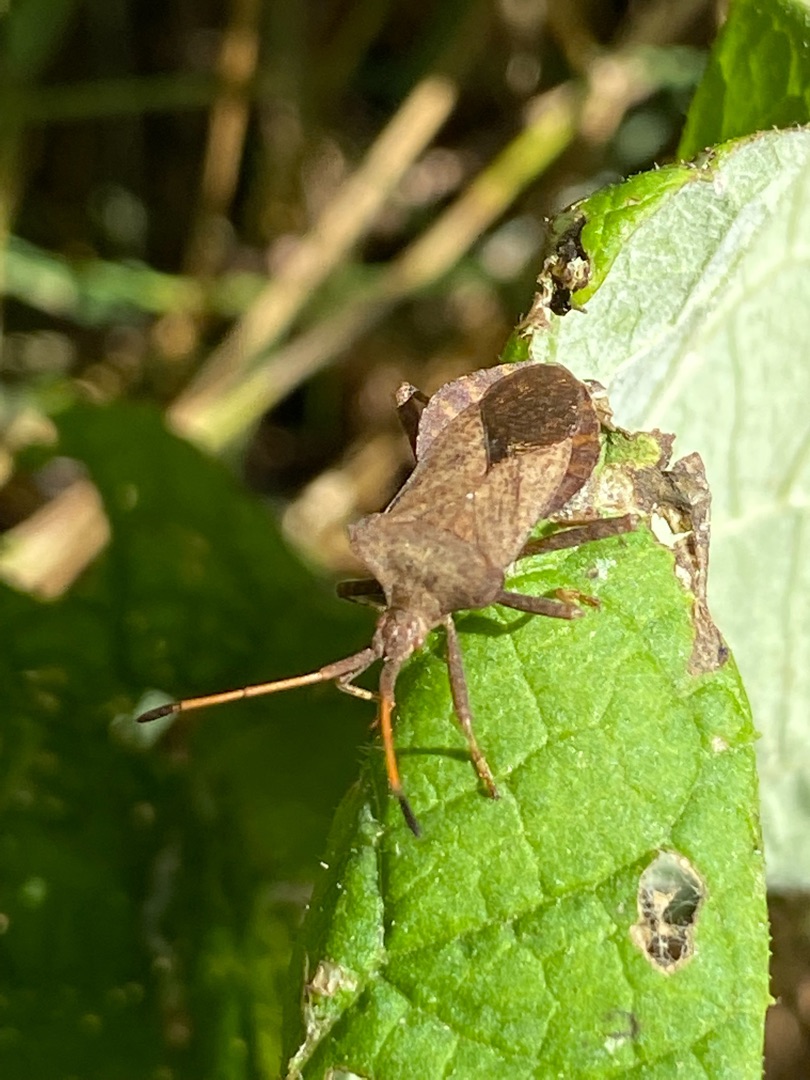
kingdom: Animalia
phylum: Arthropoda
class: Insecta
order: Hemiptera
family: Coreidae
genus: Coreus
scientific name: Coreus marginatus
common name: Skræppetæge
